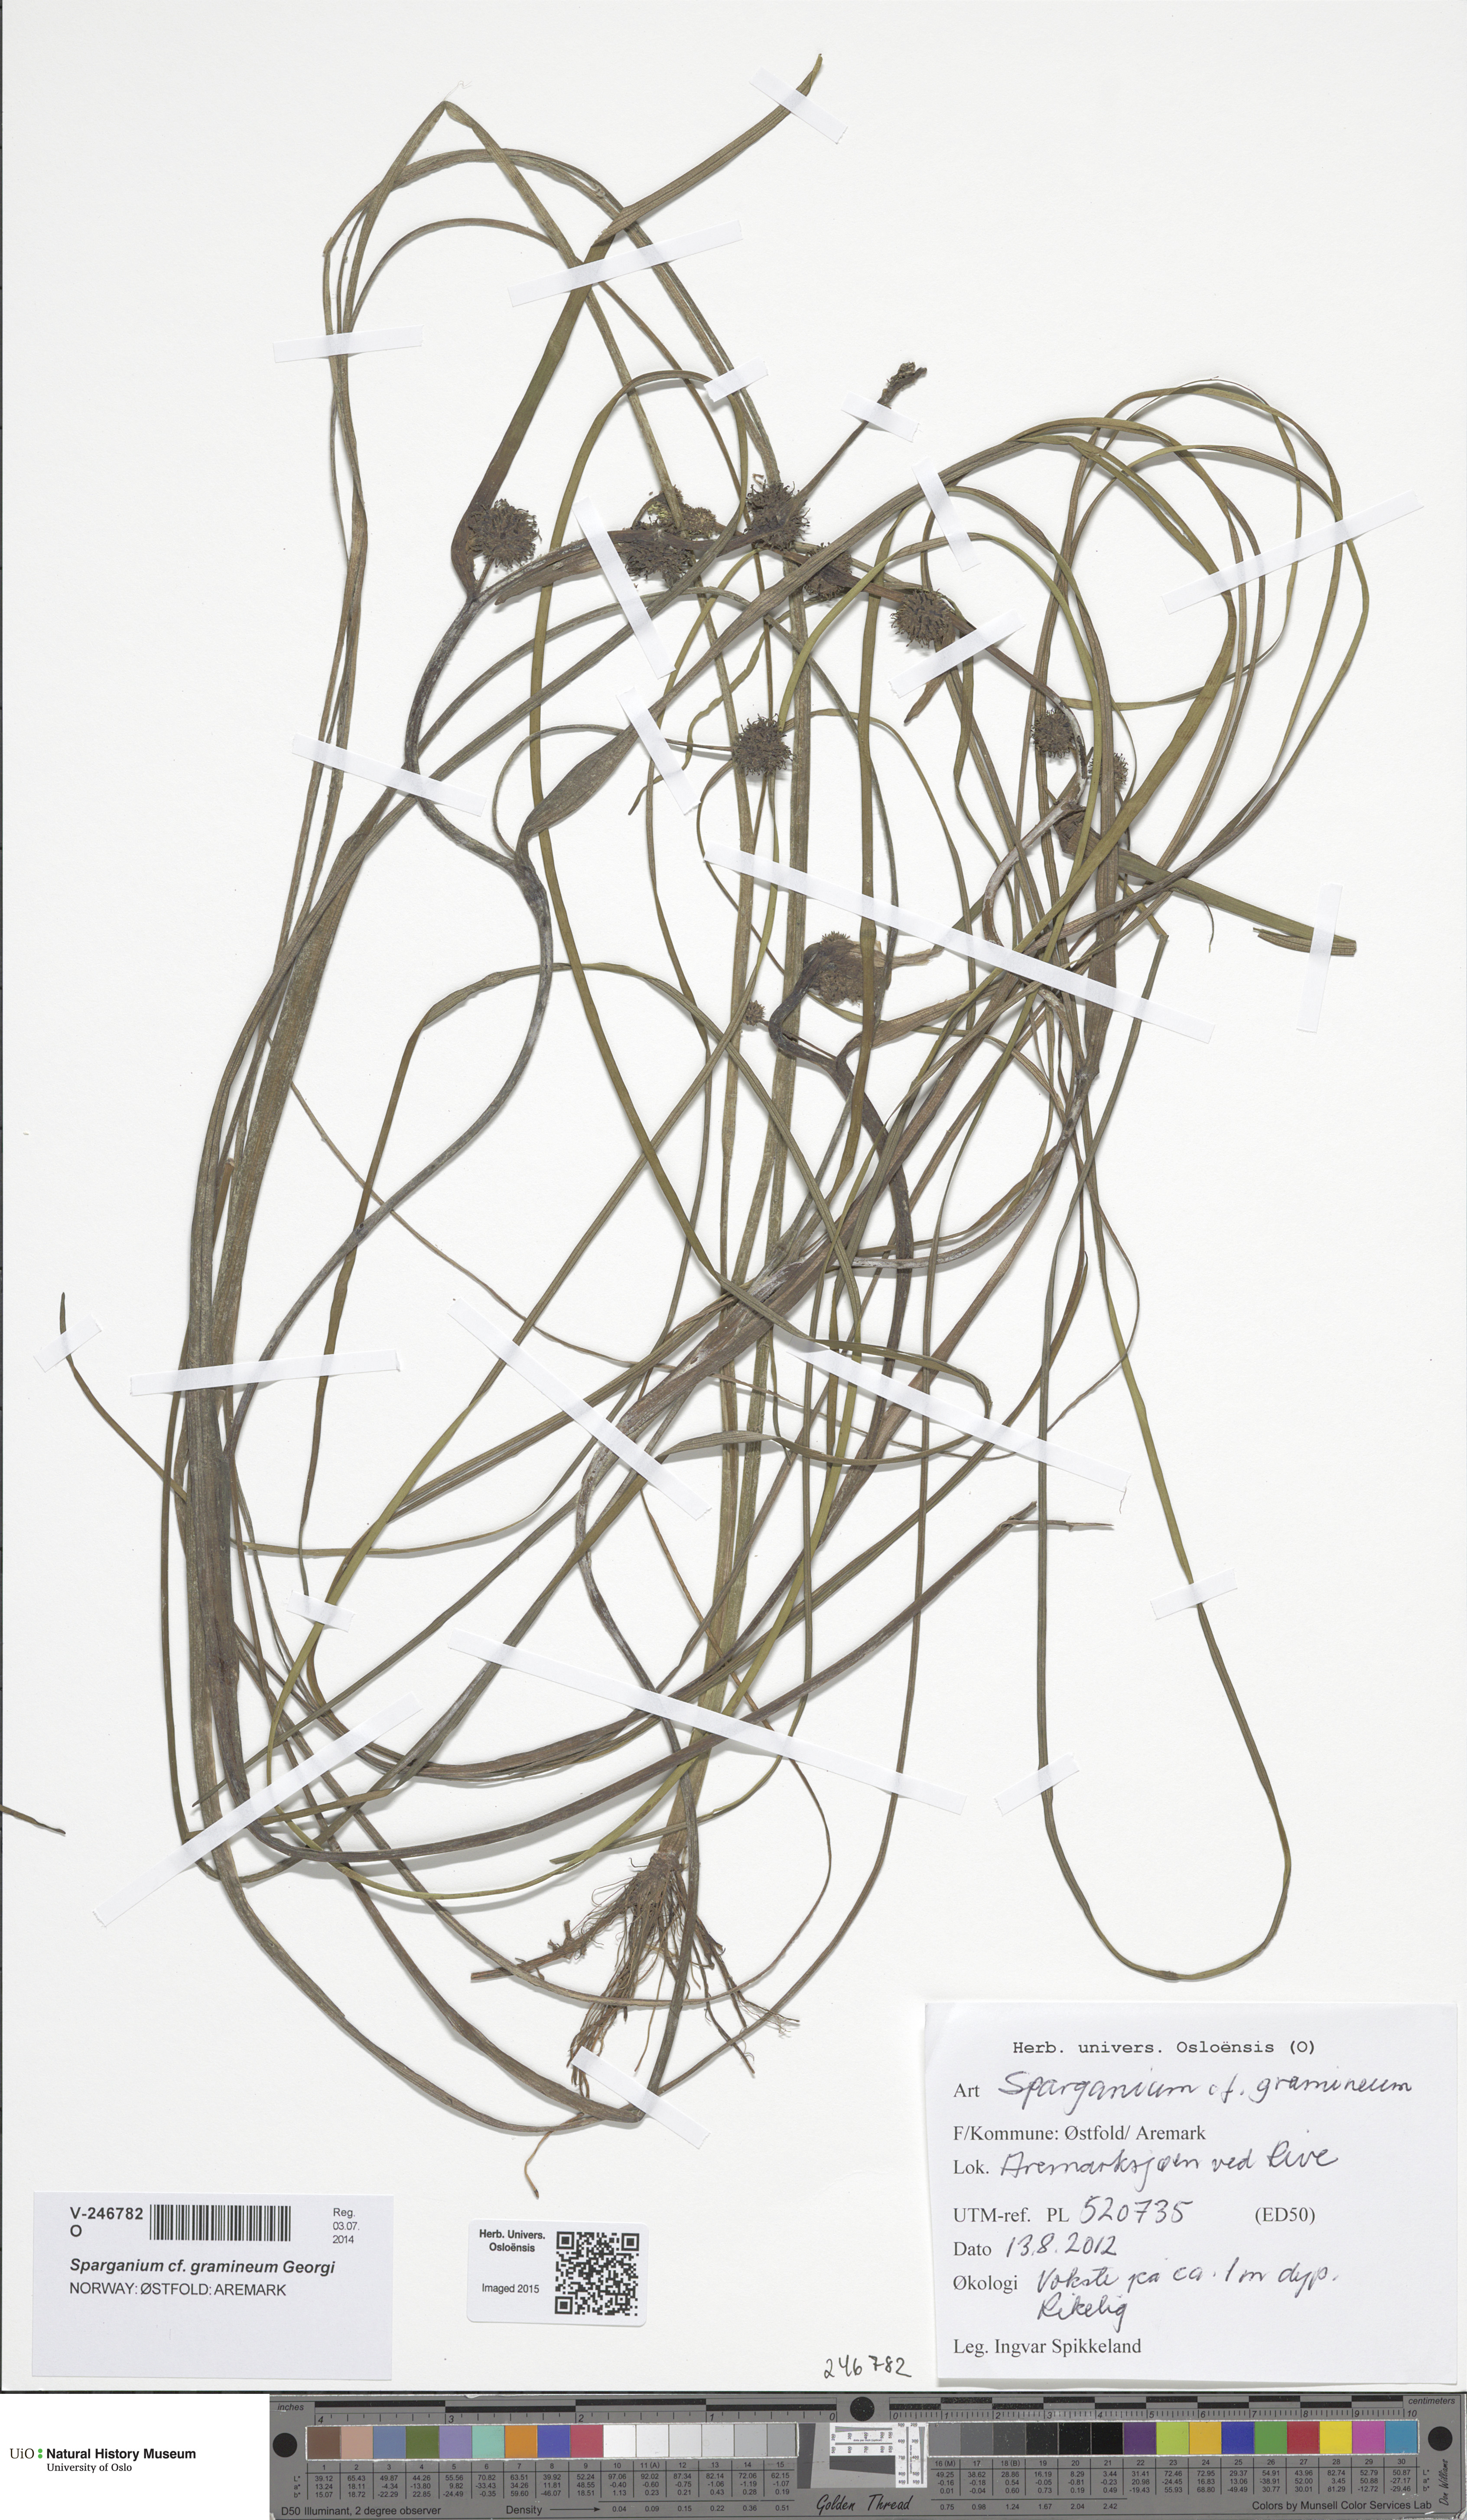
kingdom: Plantae
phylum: Tracheophyta
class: Liliopsida
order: Poales
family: Typhaceae
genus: Sparganium
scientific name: Sparganium gramineum
